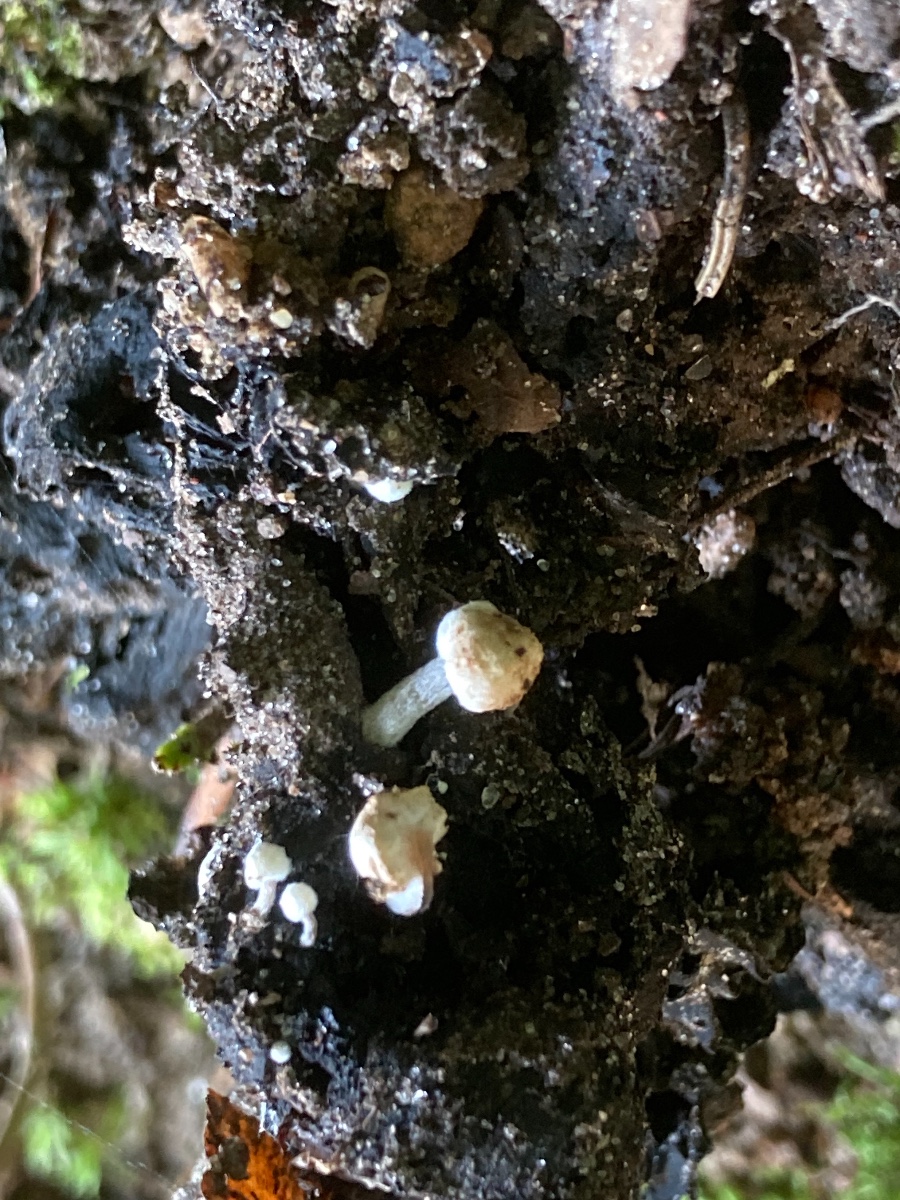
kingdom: Fungi
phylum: Basidiomycota
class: Agaricomycetes
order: Agaricales
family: Lyophyllaceae
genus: Asterophora
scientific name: Asterophora lycoperdoides
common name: brunpudret snyltehat
